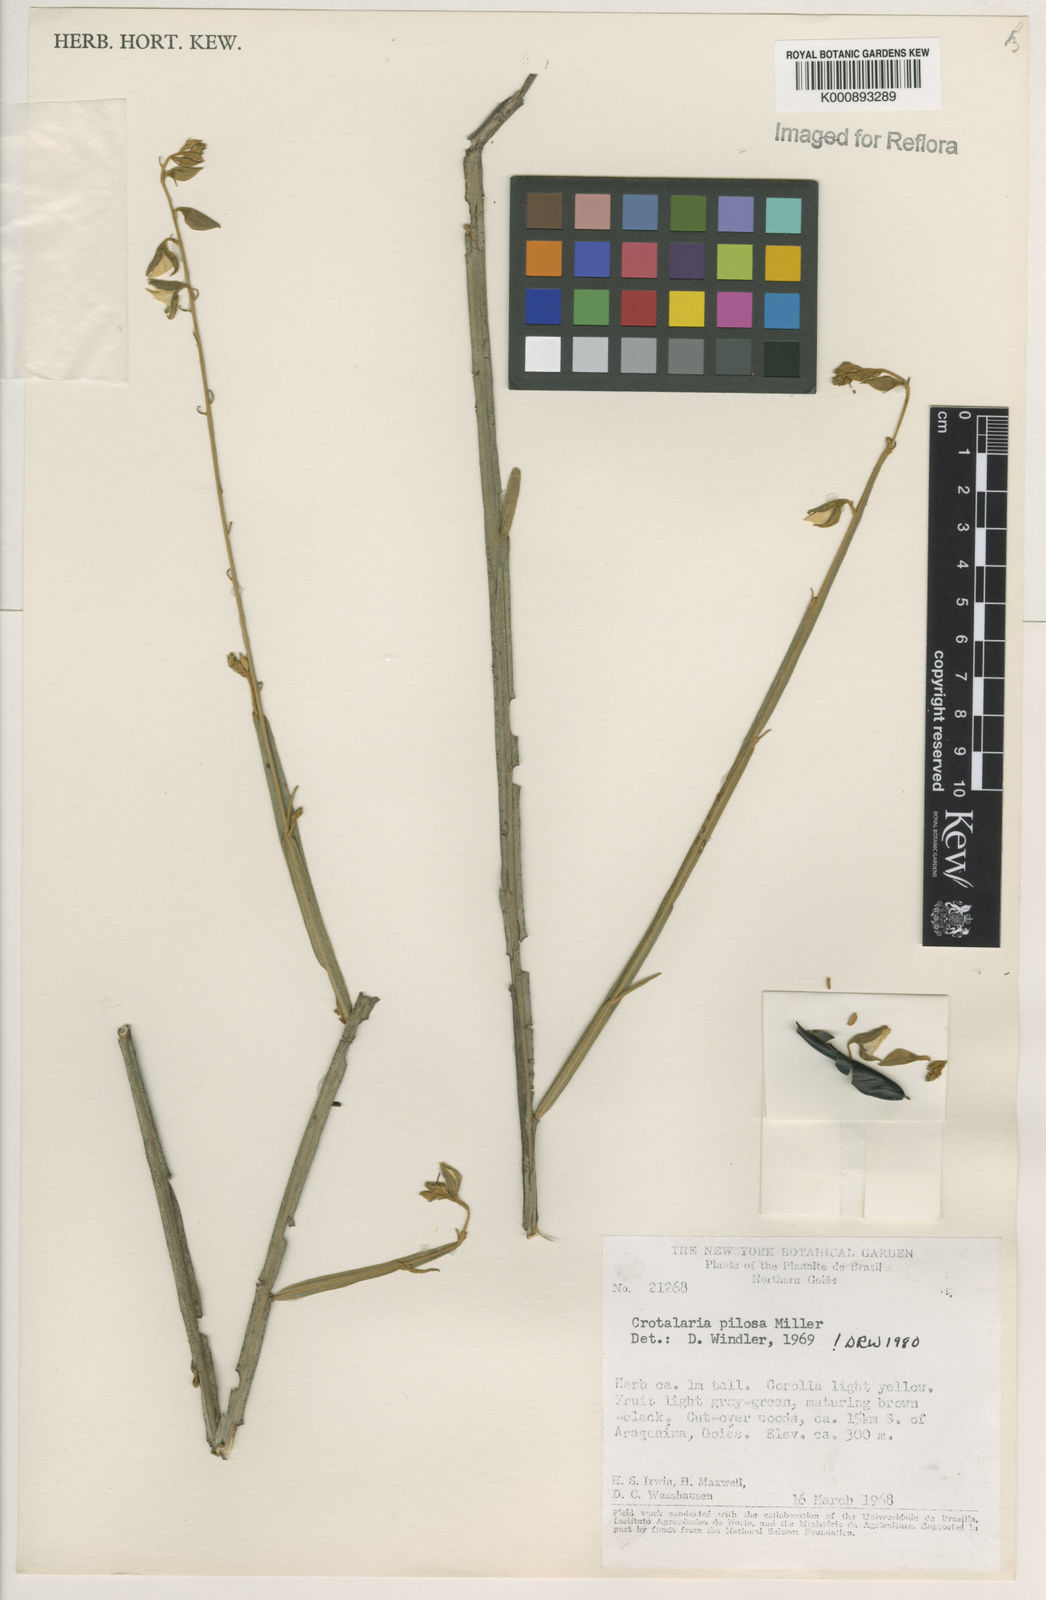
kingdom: Plantae
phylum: Tracheophyta
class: Magnoliopsida
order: Fabales
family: Fabaceae
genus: Crotalaria
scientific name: Crotalaria pilosa
